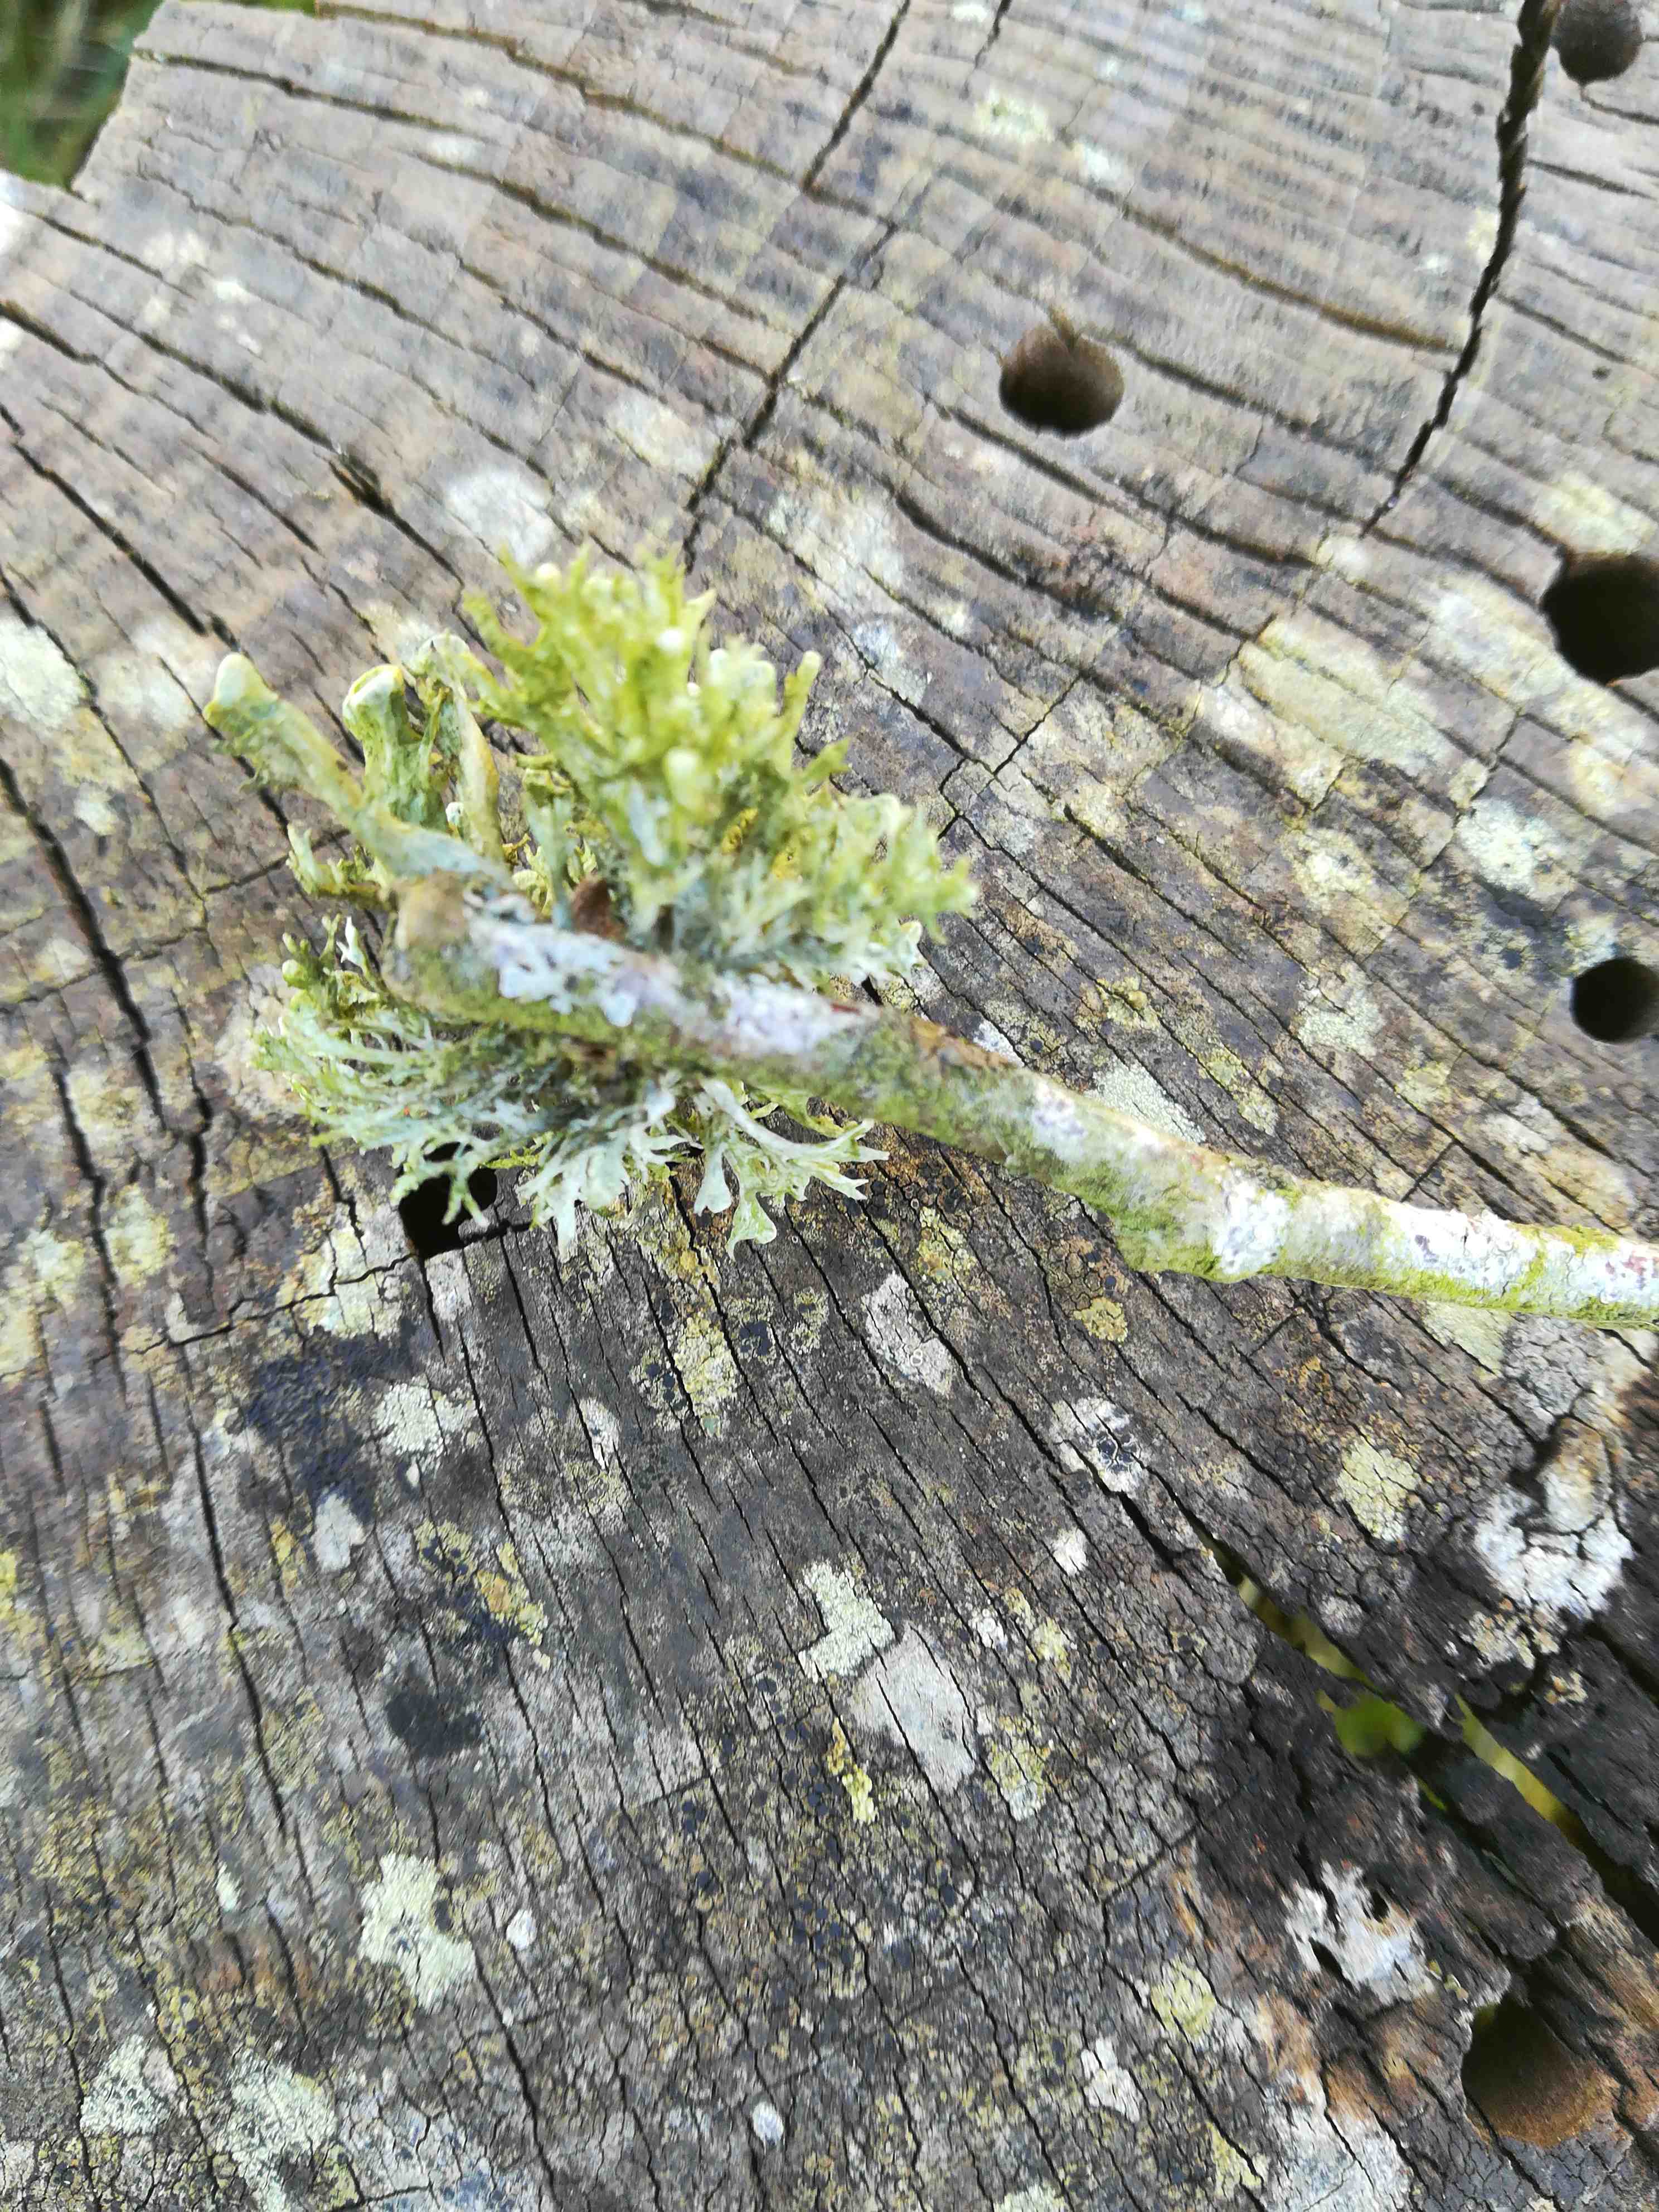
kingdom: Fungi
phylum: Ascomycota
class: Lecanoromycetes
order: Lecanorales
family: Ramalinaceae
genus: Ramalina
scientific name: Ramalina fastigiata
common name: tue-grenlav
